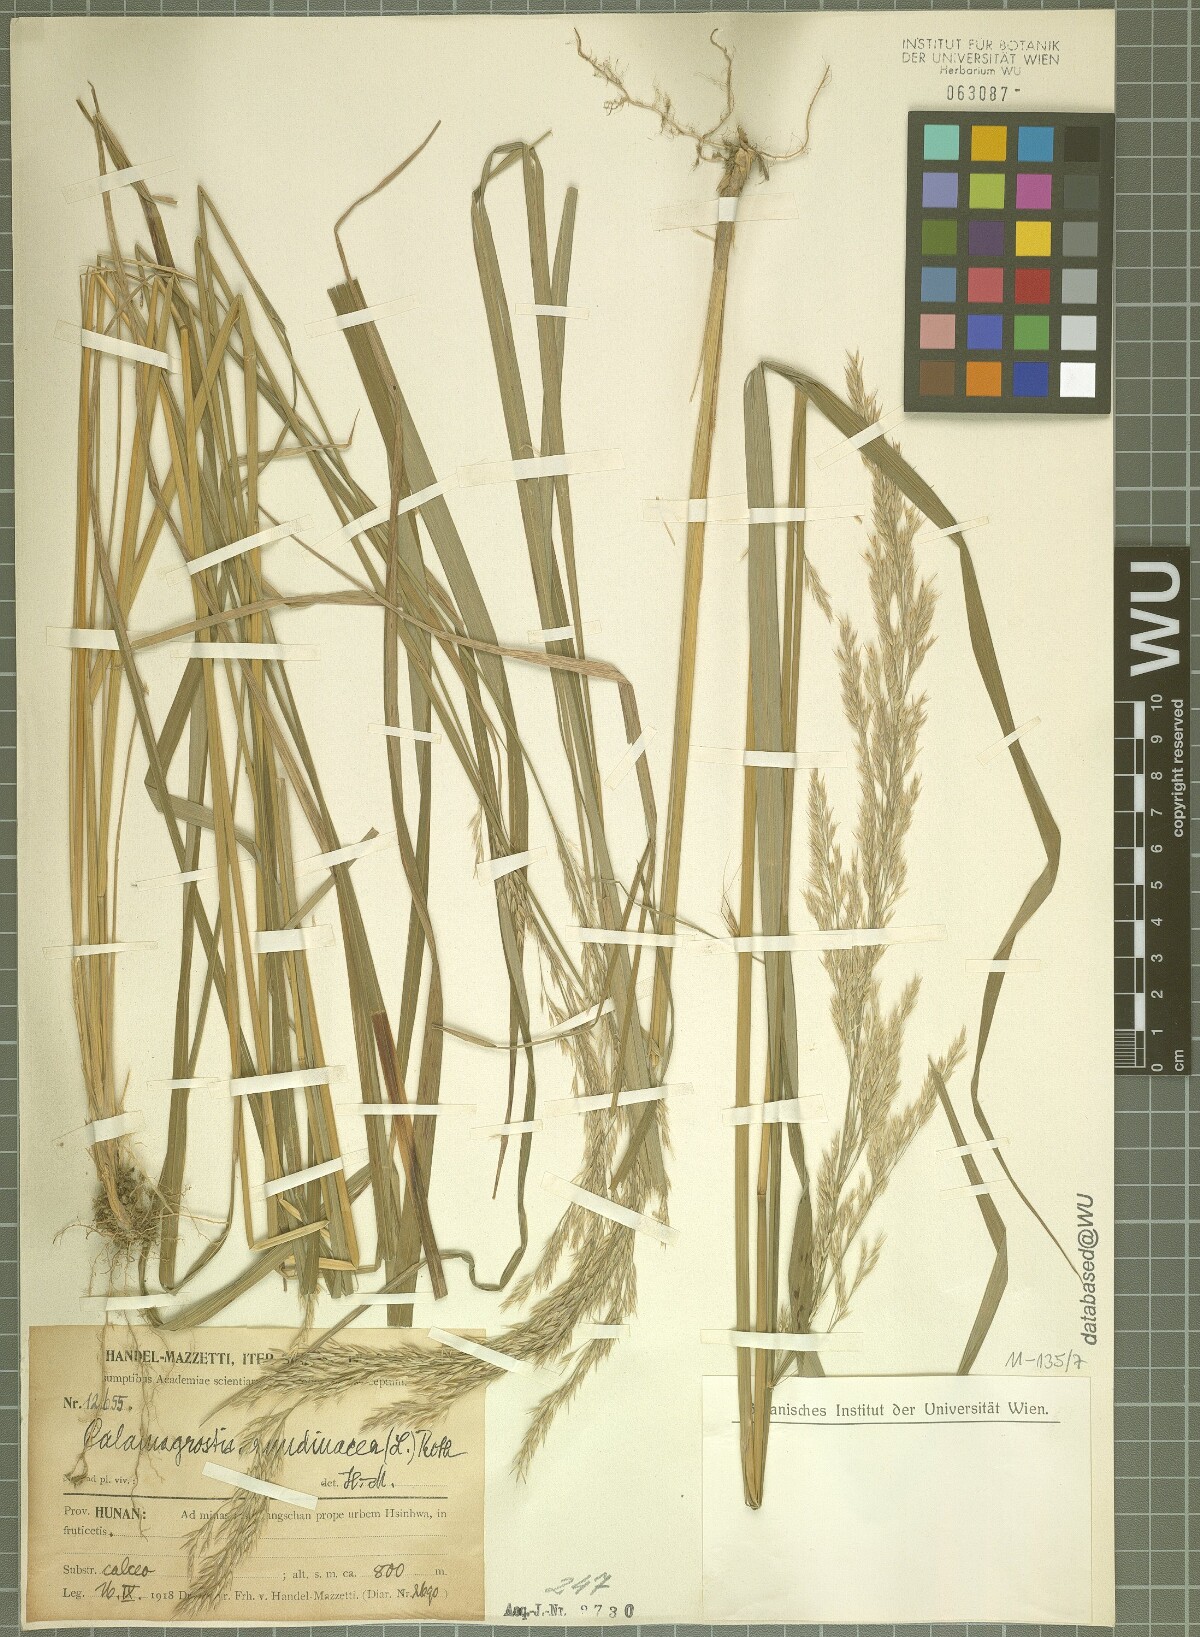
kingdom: Plantae
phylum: Tracheophyta
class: Liliopsida
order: Poales
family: Poaceae
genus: Calamagrostis
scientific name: Calamagrostis arundinacea
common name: Metskastik
